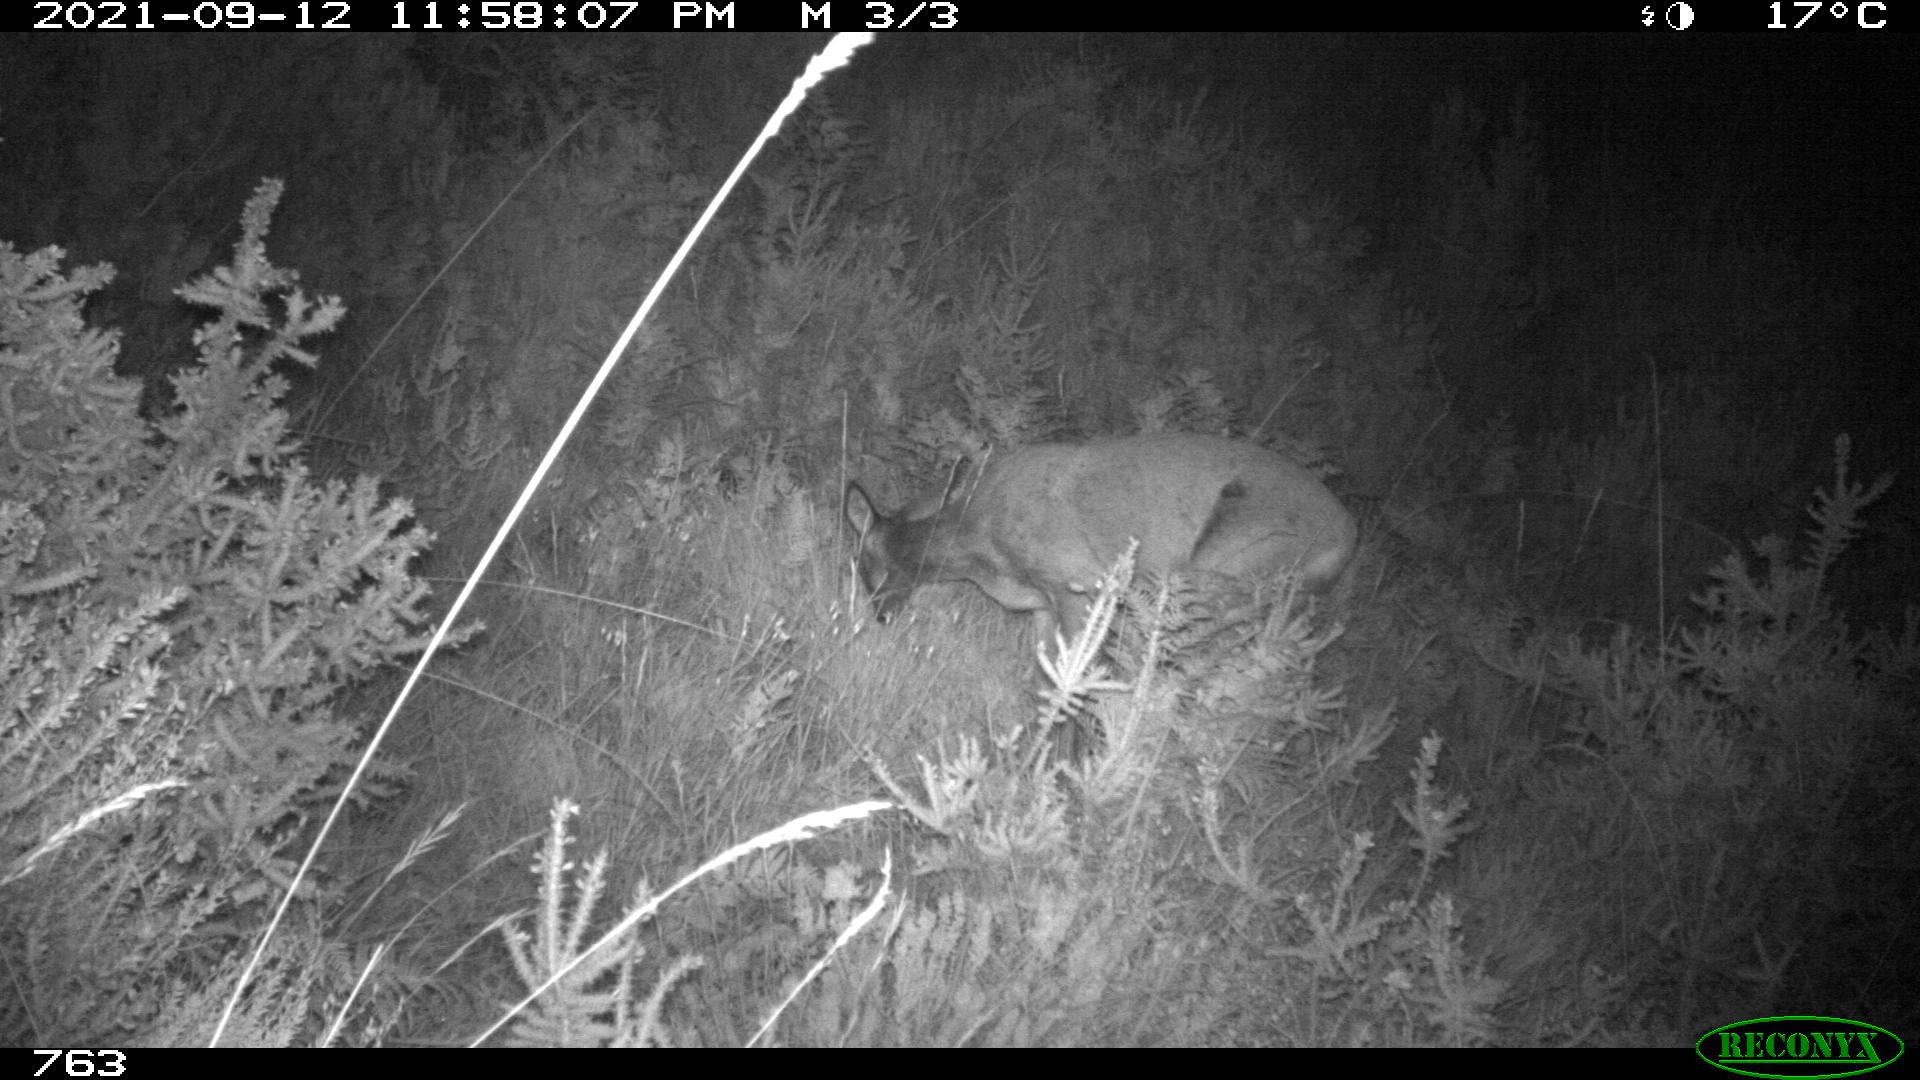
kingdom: Animalia
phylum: Chordata
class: Mammalia
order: Artiodactyla
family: Cervidae
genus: Capreolus
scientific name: Capreolus capreolus
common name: Western roe deer
